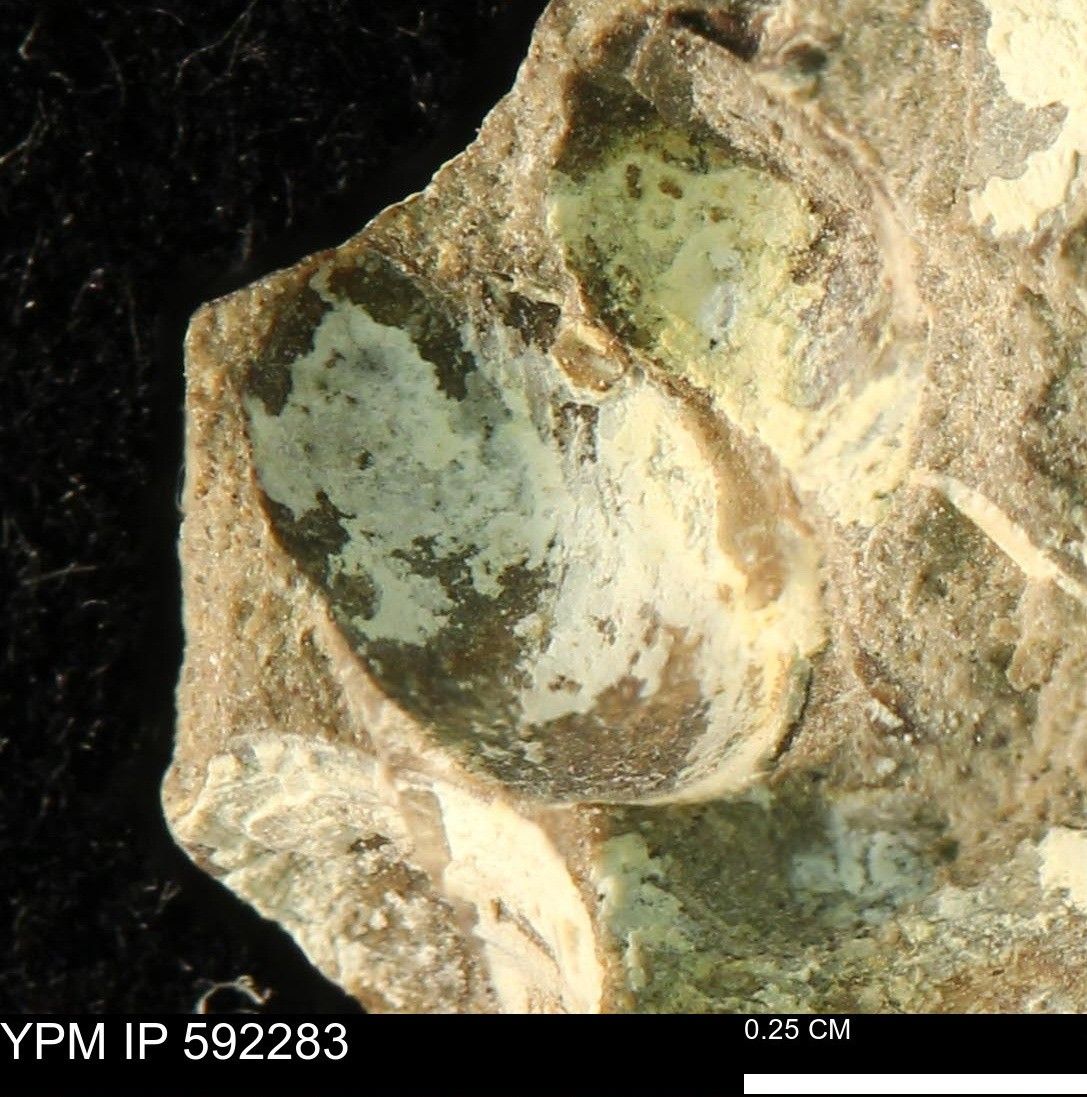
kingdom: Animalia
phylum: Mollusca
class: Bivalvia
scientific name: Bivalvia
